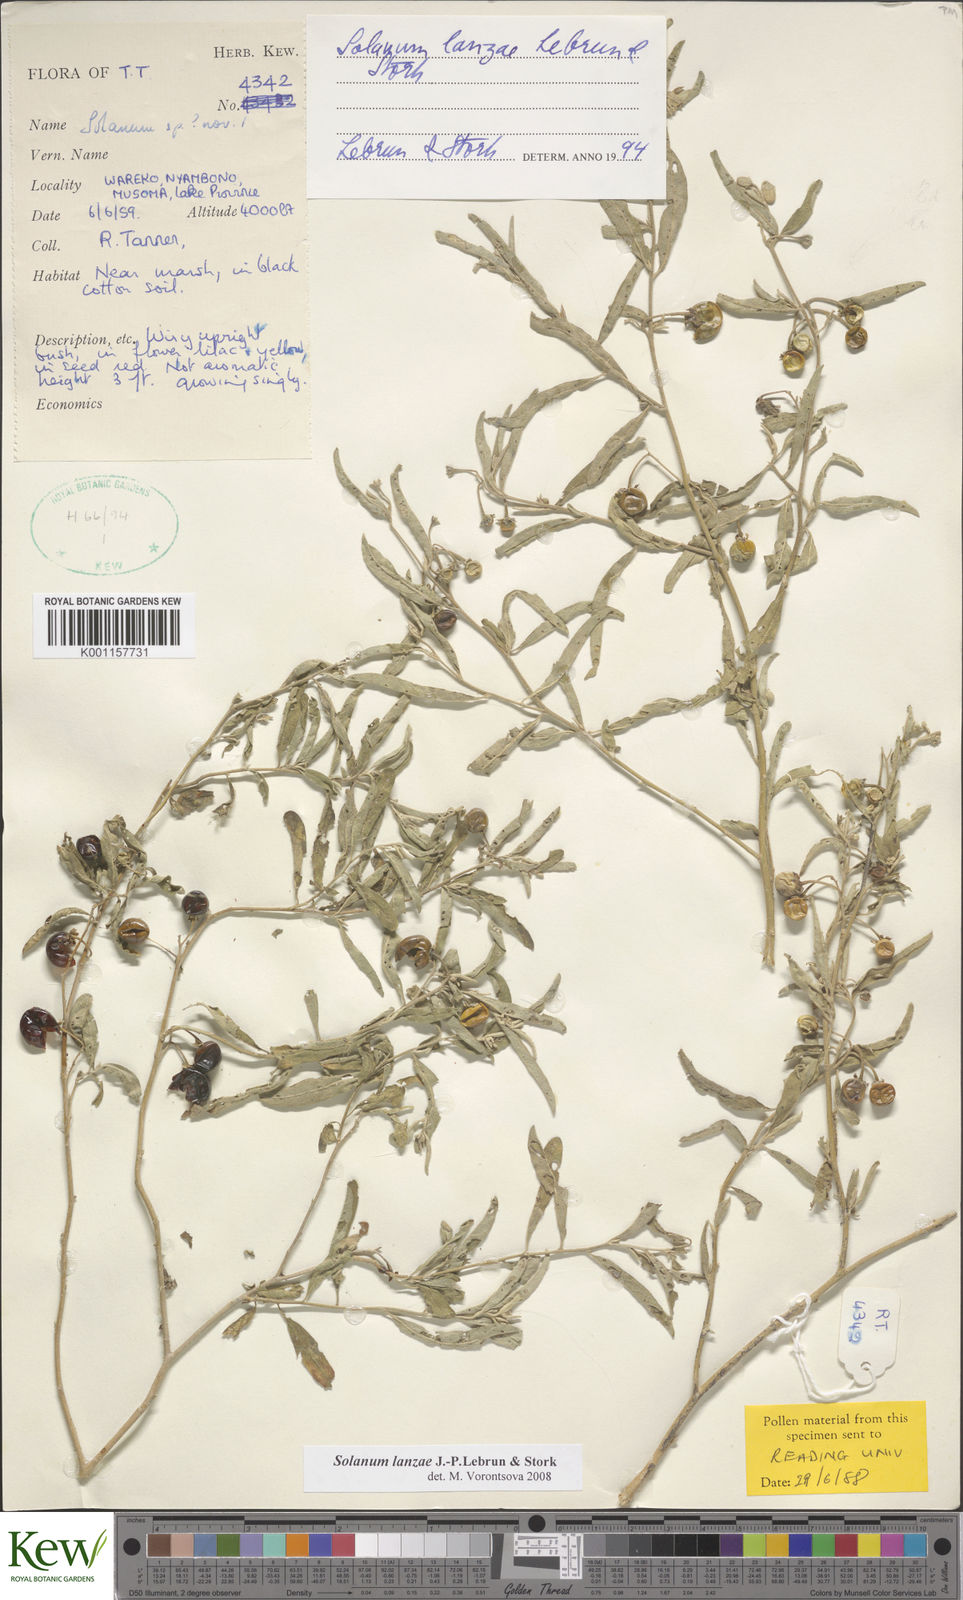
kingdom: Plantae
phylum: Tracheophyta
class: Magnoliopsida
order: Solanales
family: Solanaceae
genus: Solanum
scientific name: Solanum lanzae
